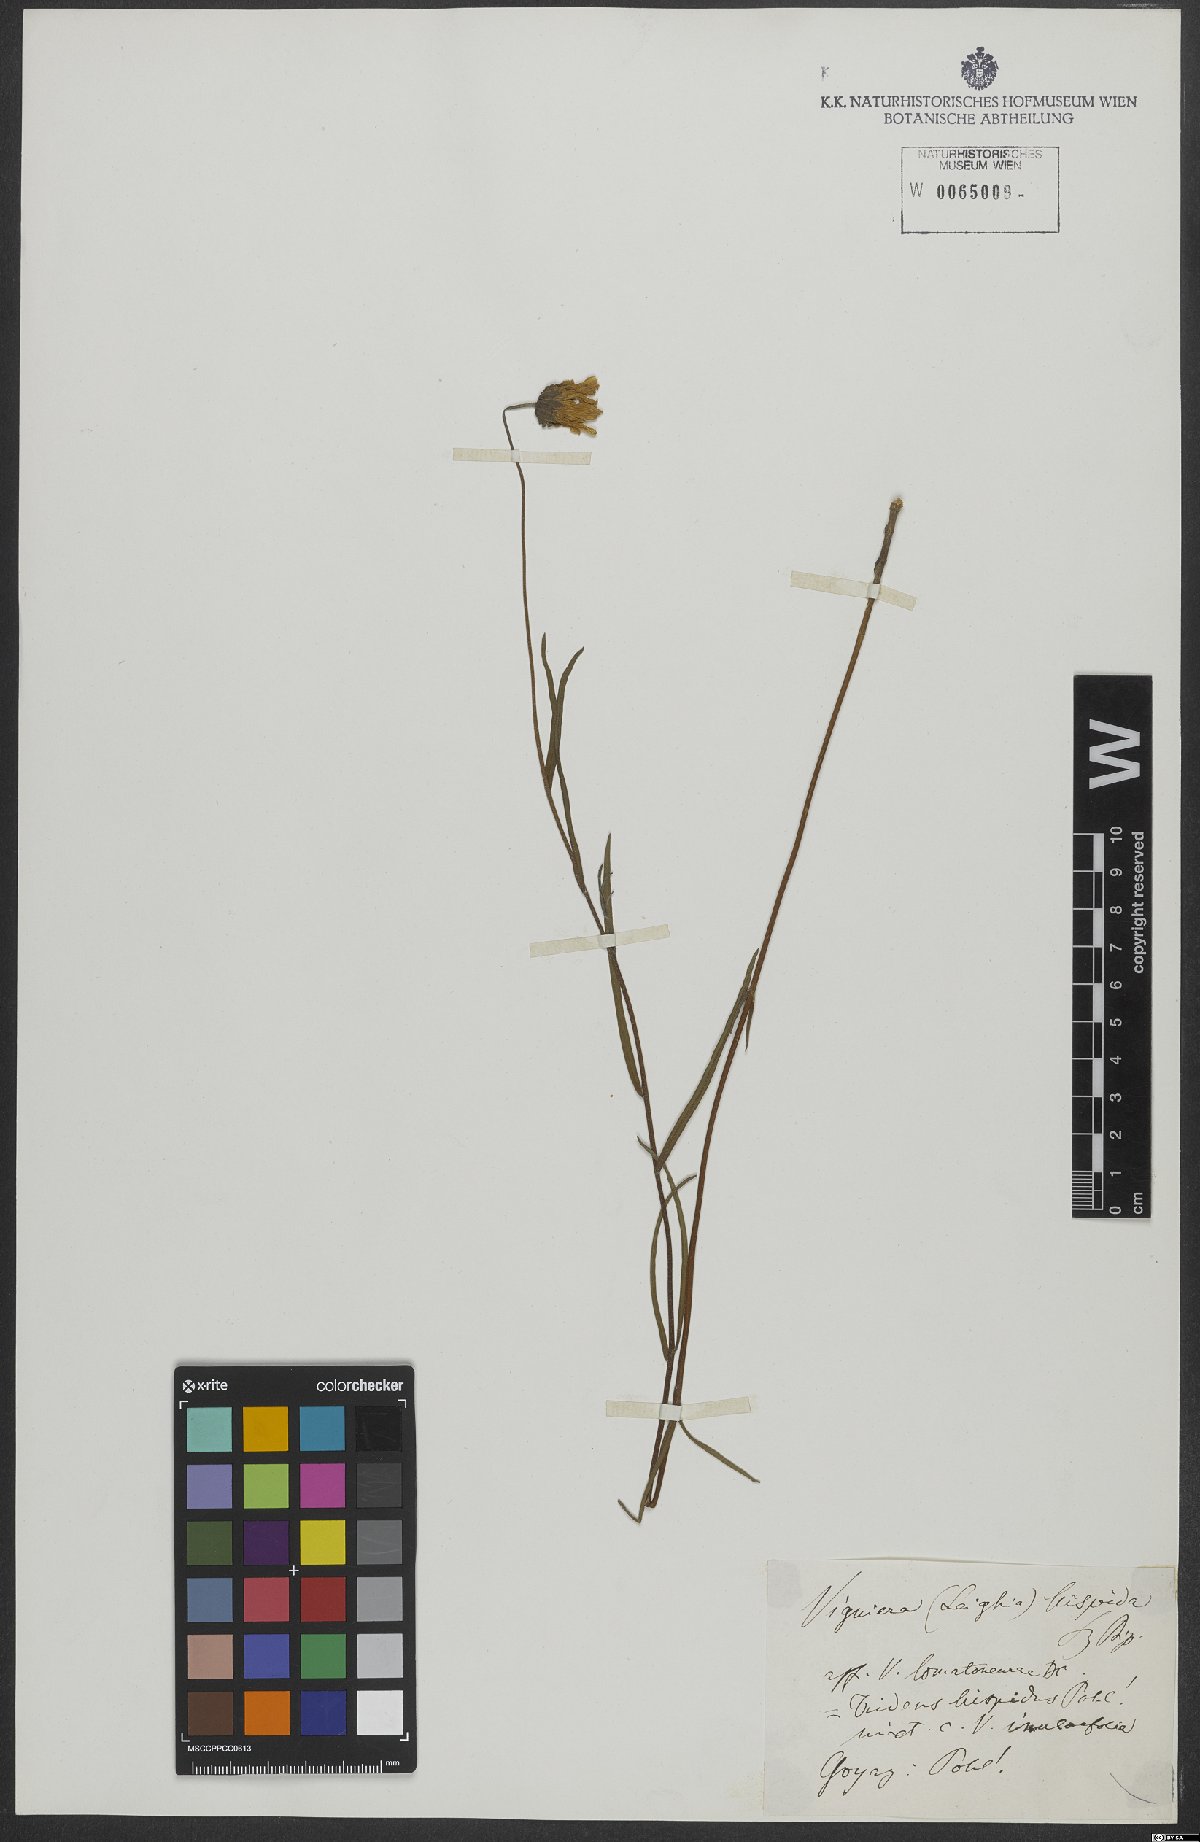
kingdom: Plantae
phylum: Tracheophyta
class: Magnoliopsida
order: Asterales
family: Asteraceae
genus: Aldama
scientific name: Aldama goyazii
